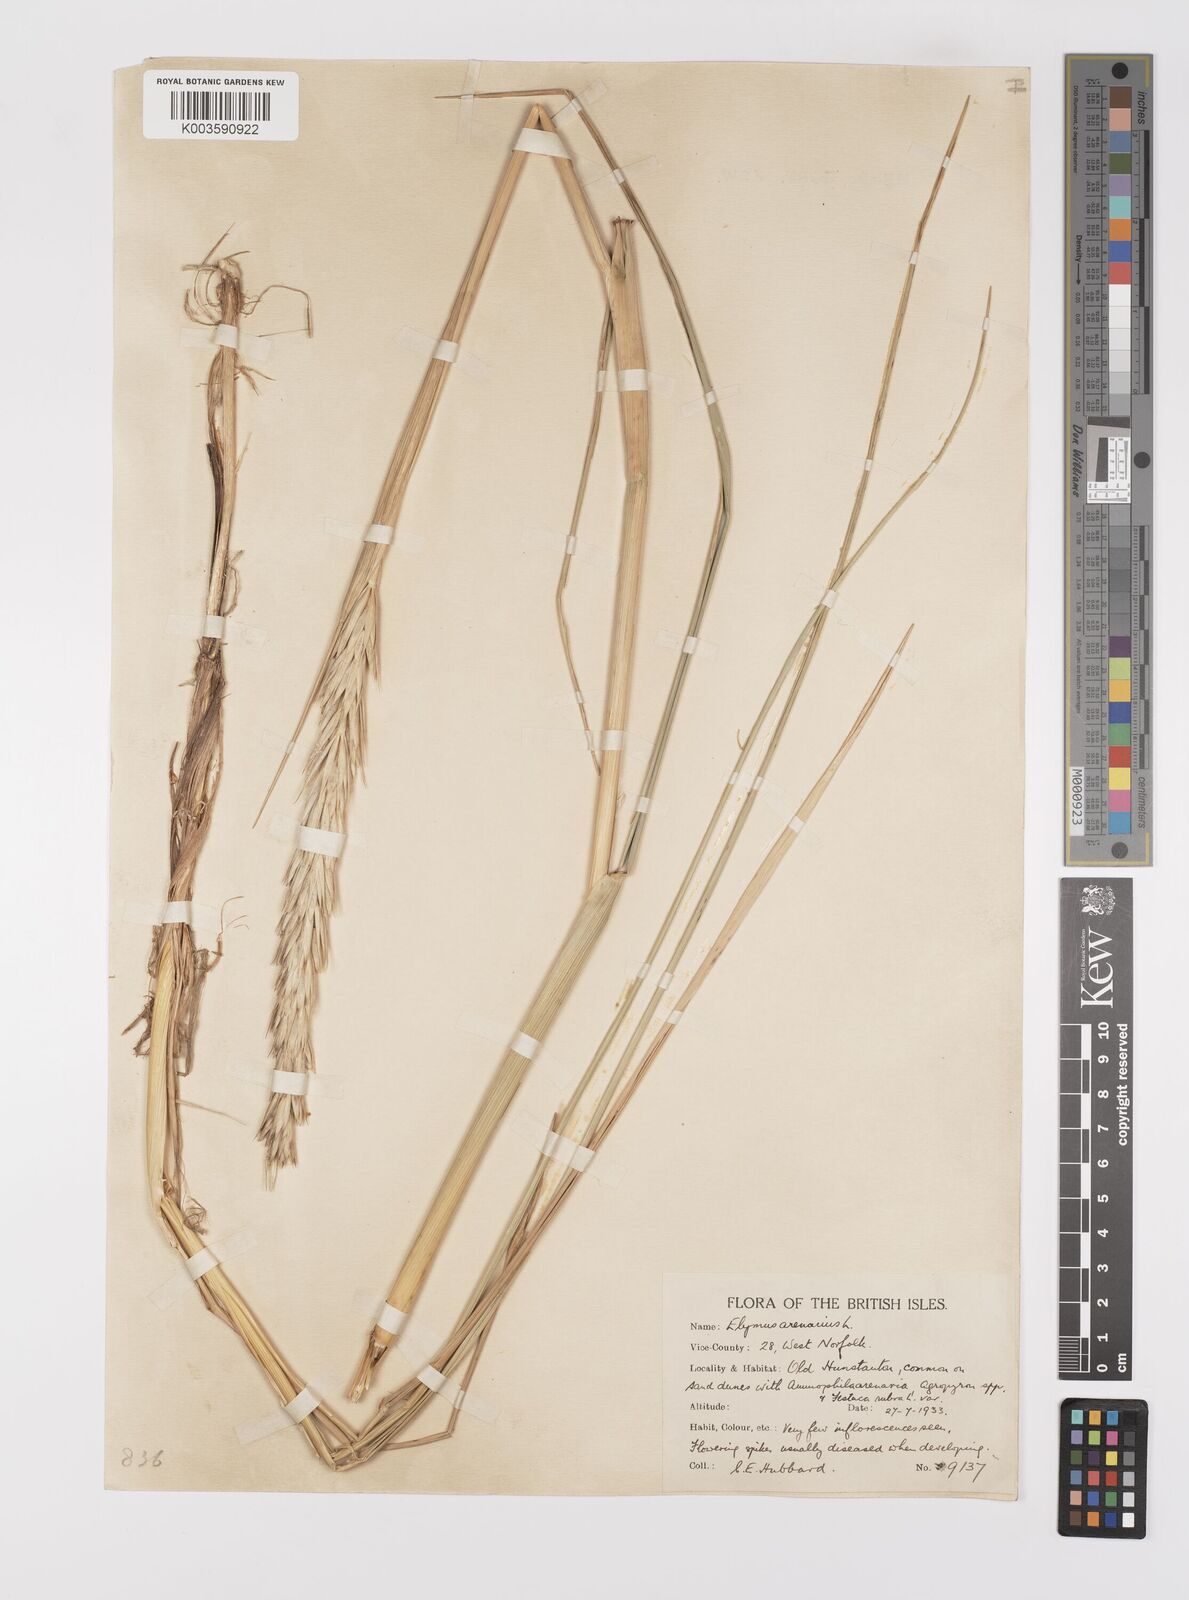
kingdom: Plantae
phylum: Tracheophyta
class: Liliopsida
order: Poales
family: Poaceae
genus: Leymus
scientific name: Leymus arenarius
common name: Lyme-grass
